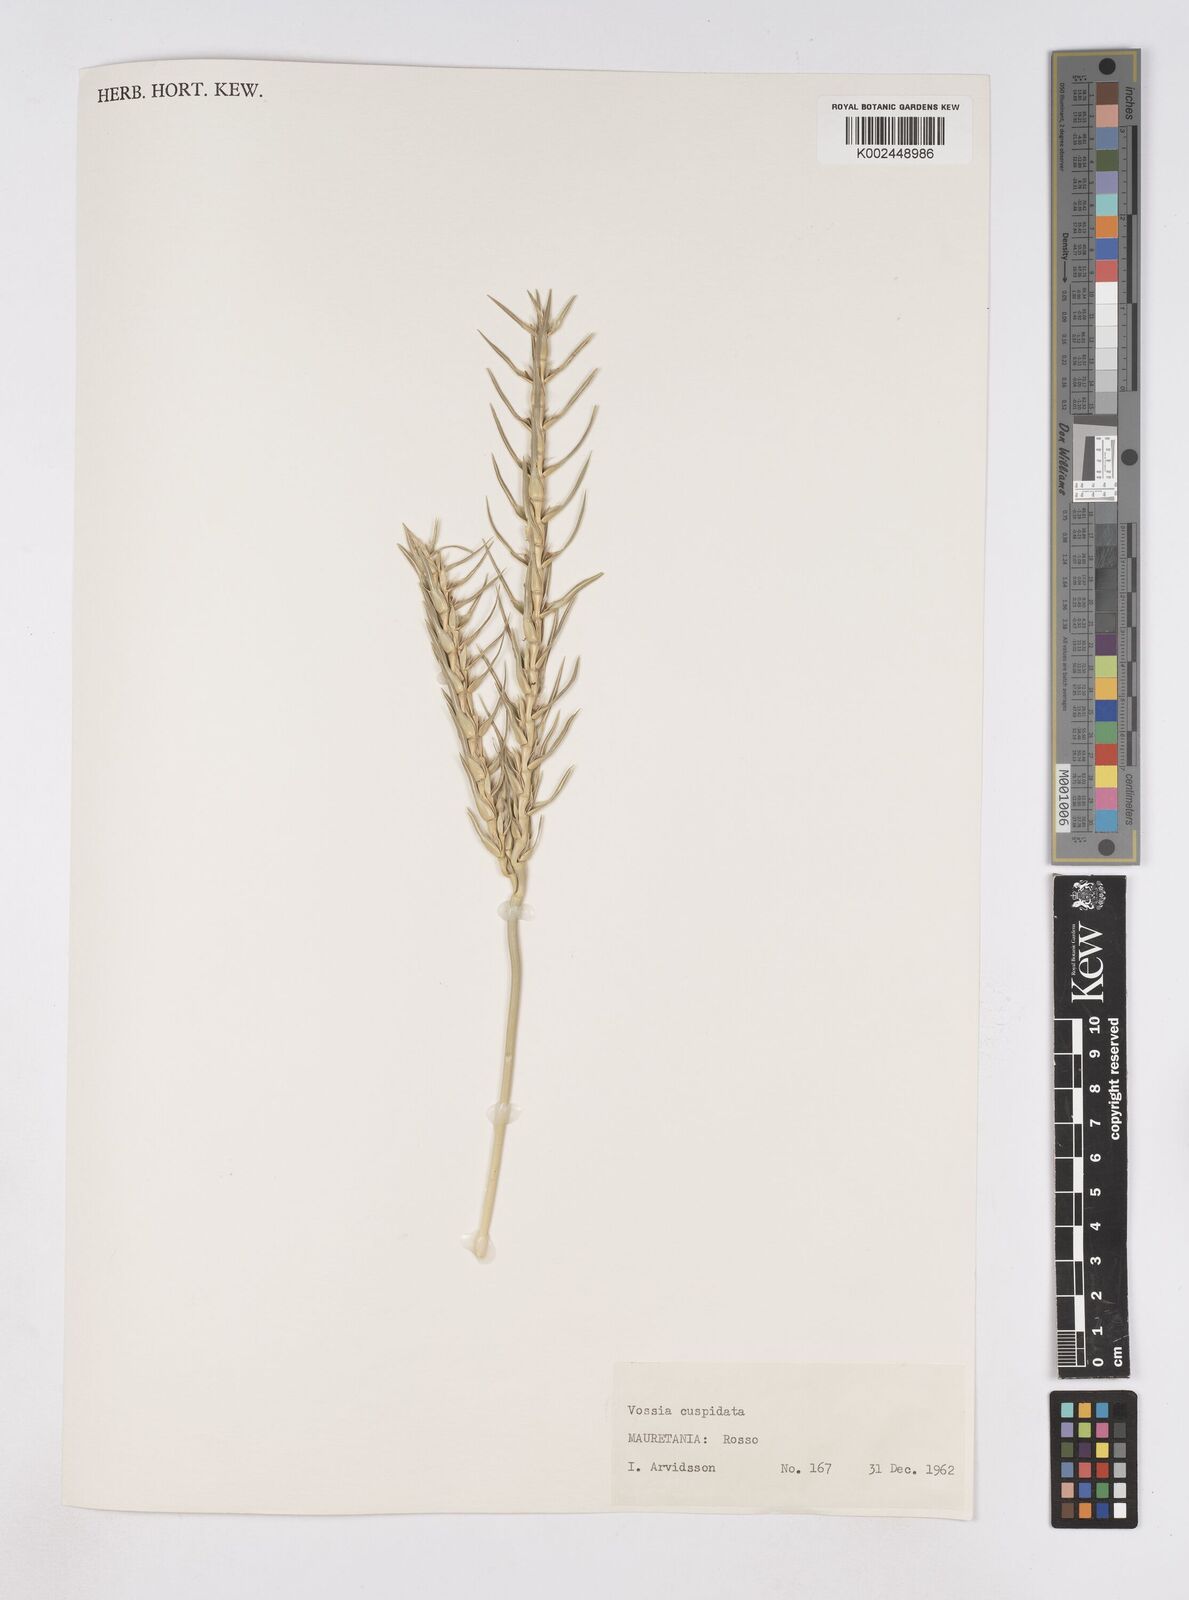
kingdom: Plantae
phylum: Tracheophyta
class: Liliopsida
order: Poales
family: Poaceae
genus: Vossia
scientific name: Vossia cuspidata
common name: Hippo grass
